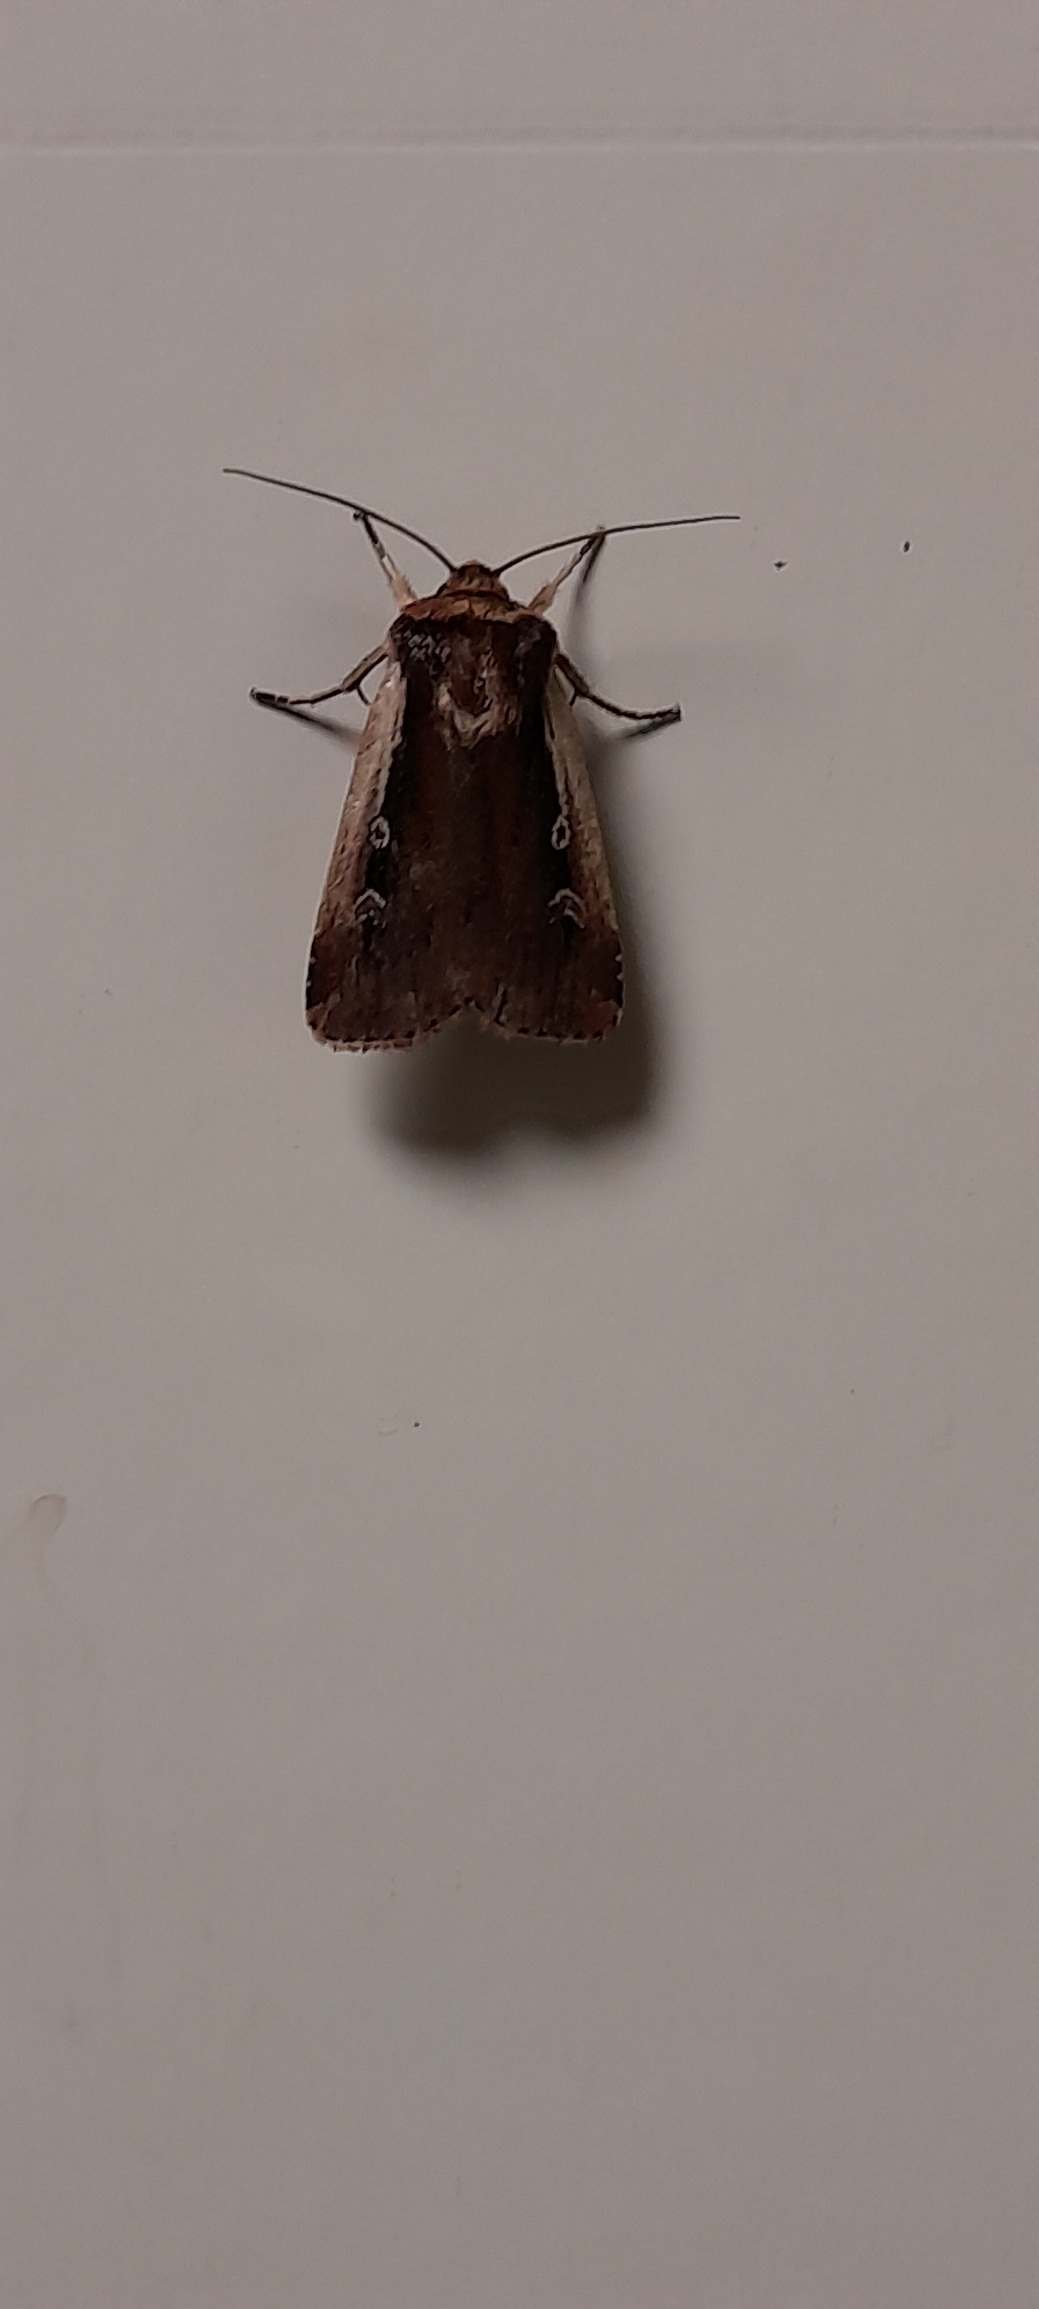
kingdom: Animalia
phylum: Arthropoda
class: Insecta
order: Lepidoptera
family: Noctuidae
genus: Ochropleura
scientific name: Ochropleura plecta
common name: Hvidrandet jordugle
